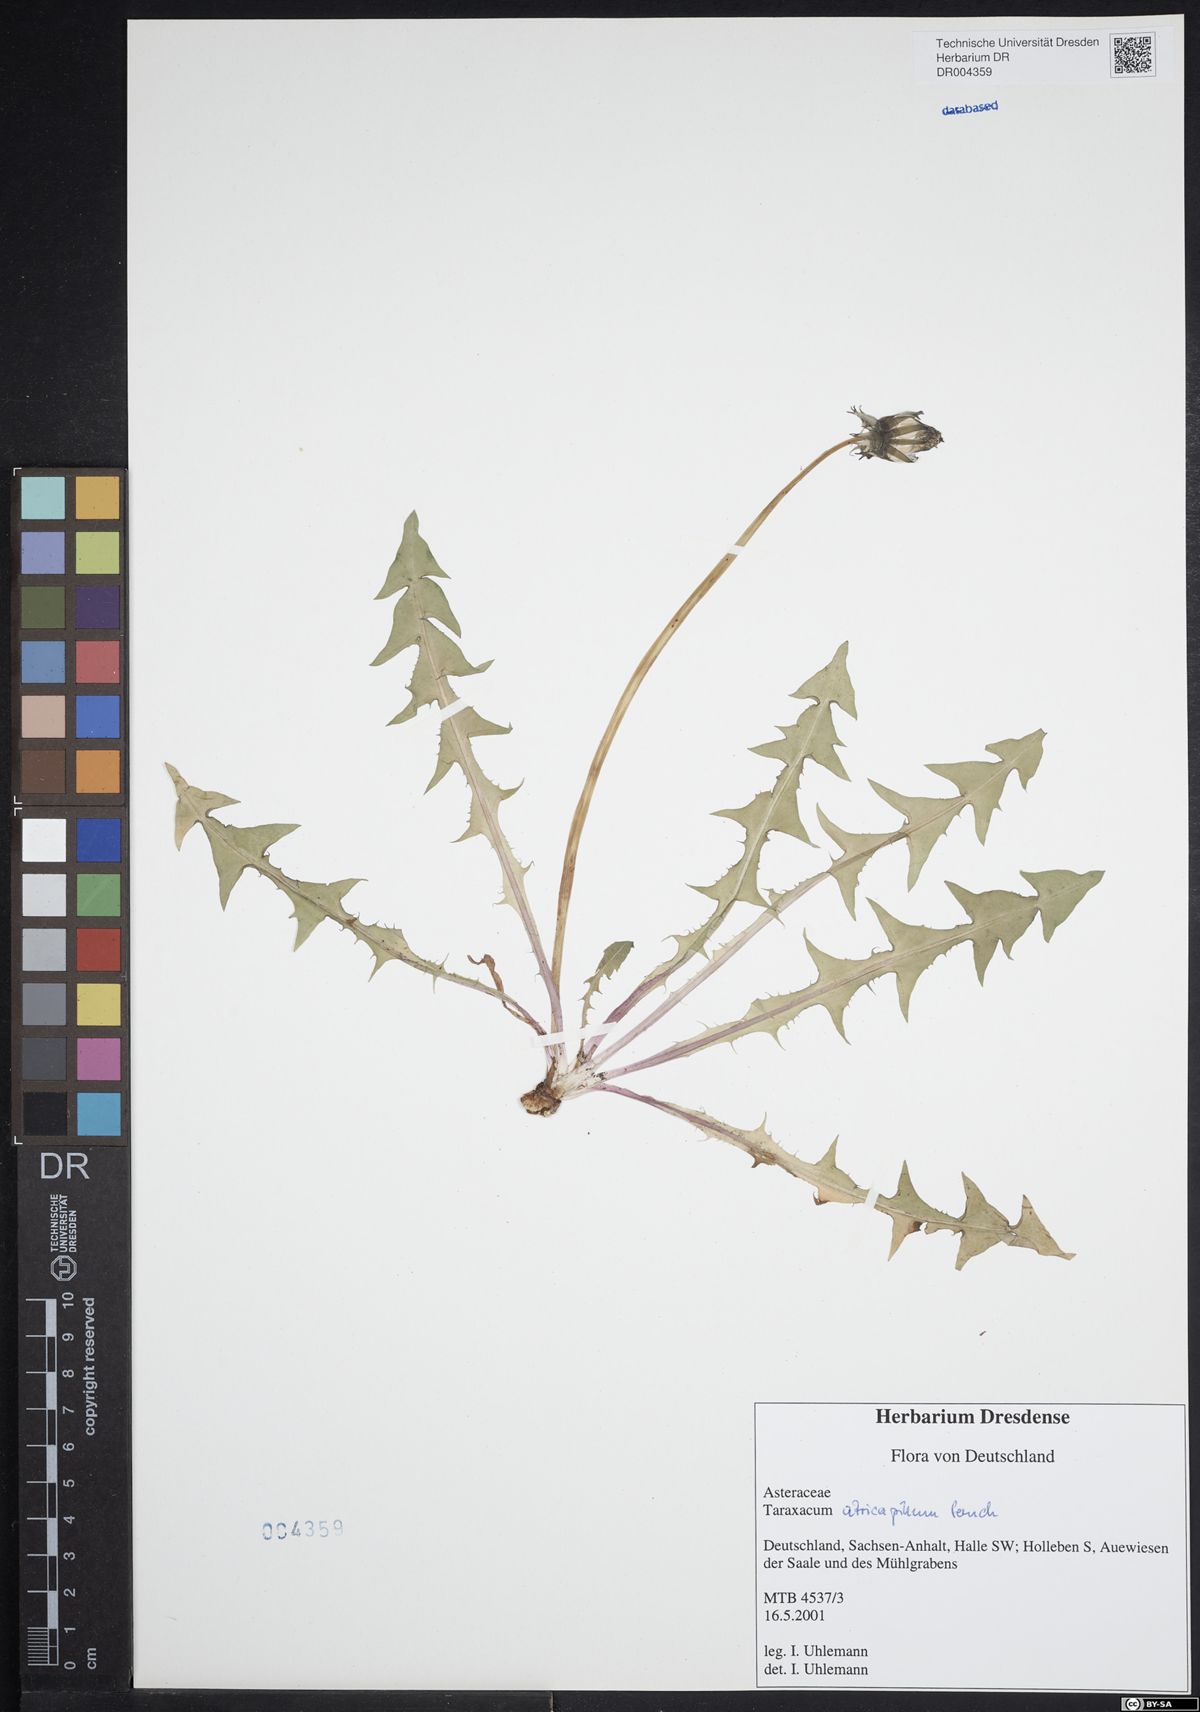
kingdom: Plantae
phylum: Tracheophyta
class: Magnoliopsida
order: Asterales
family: Asteraceae
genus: Taraxacum
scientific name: Taraxacum atricapillum
